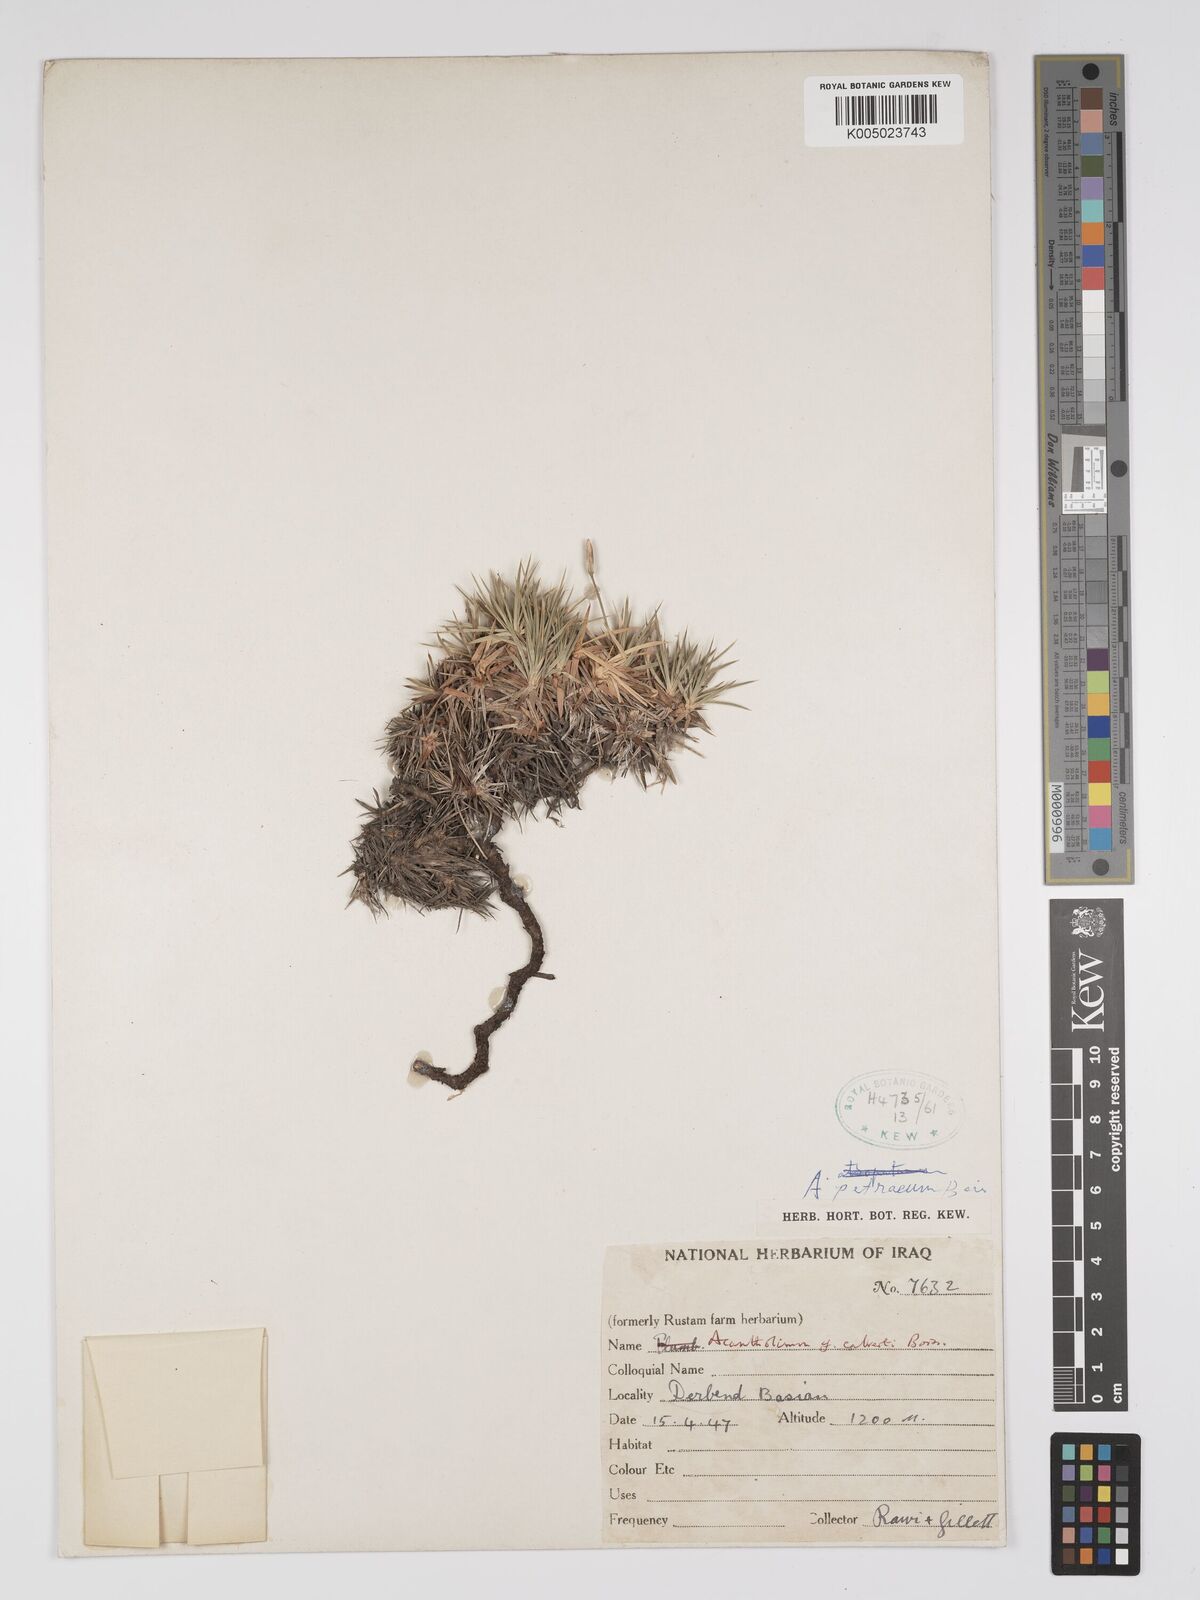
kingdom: Plantae
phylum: Tracheophyta
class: Magnoliopsida
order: Caryophyllales
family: Plumbaginaceae
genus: Acantholimon
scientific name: Acantholimon petraeum
